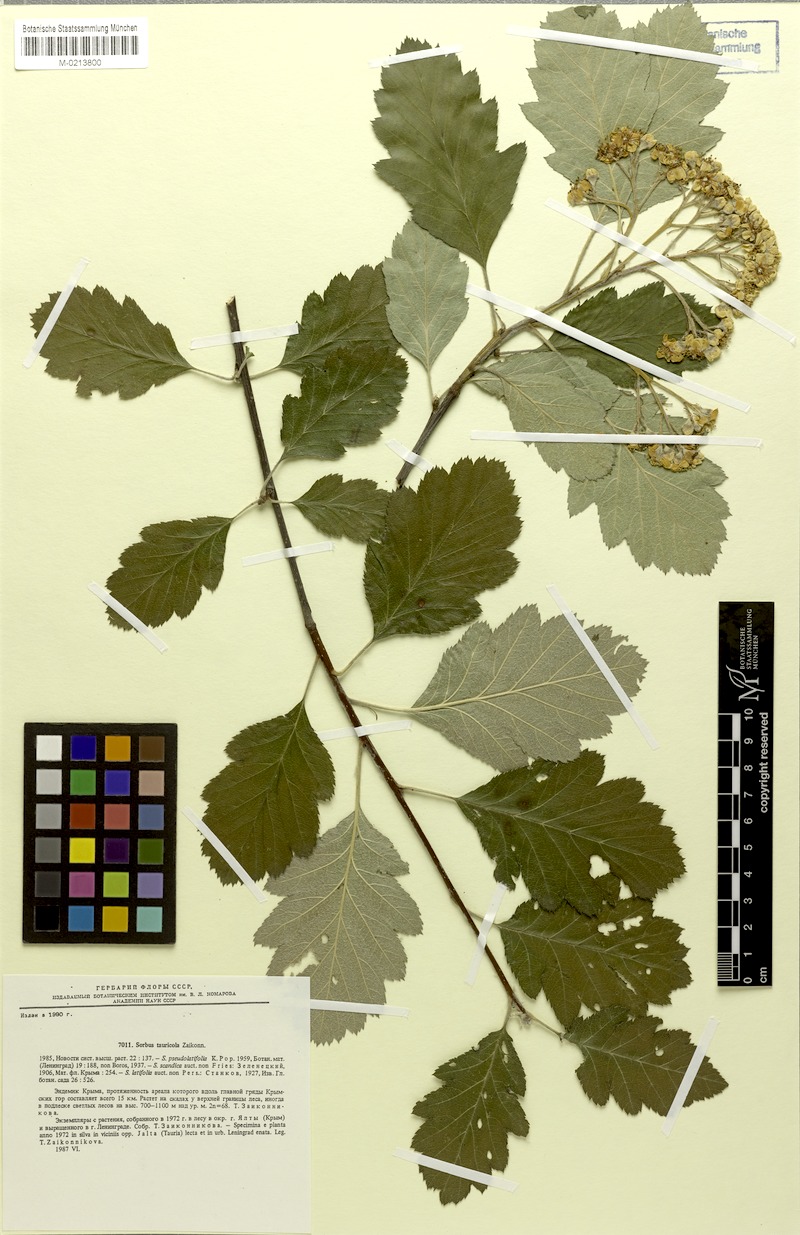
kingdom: Plantae
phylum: Tracheophyta
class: Magnoliopsida
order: Rosales
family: Rosaceae
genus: Karpatiosorbus
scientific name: Karpatiosorbus tauricola
